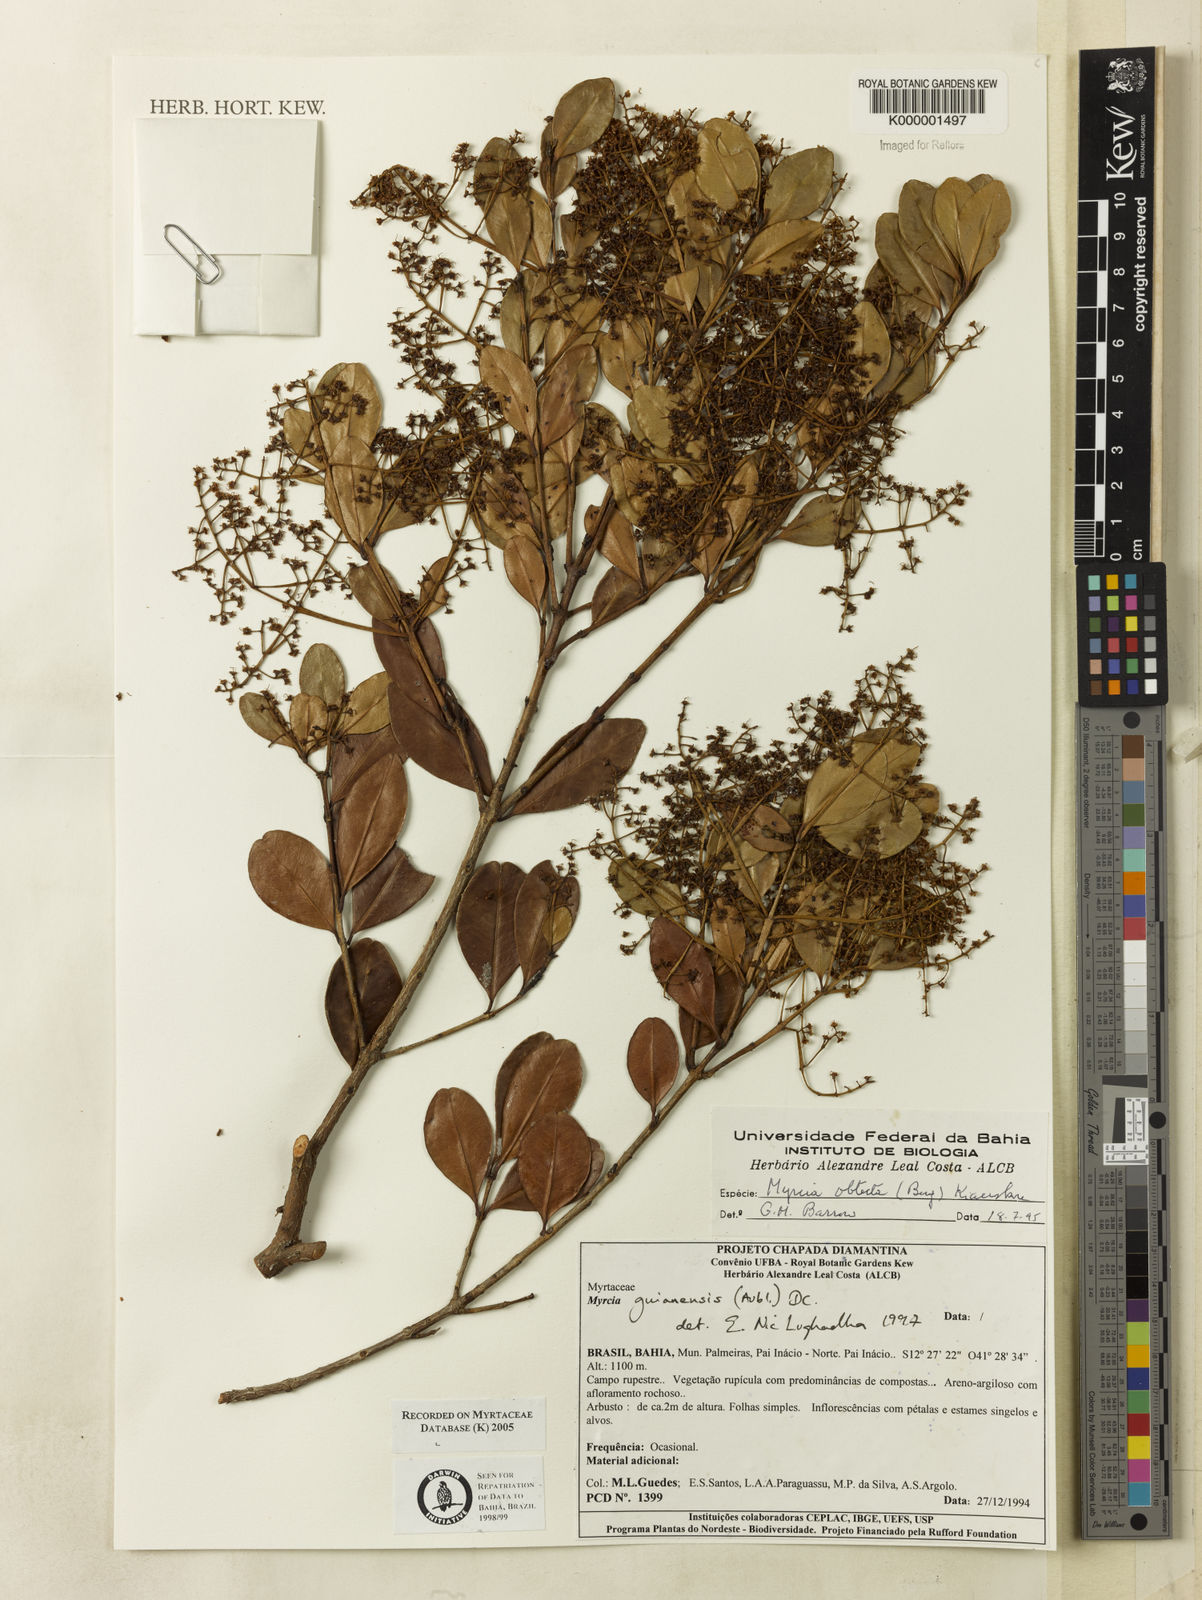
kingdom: Plantae
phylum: Tracheophyta
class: Magnoliopsida
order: Myrtales
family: Myrtaceae
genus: Myrcia
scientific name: Myrcia guianensis
